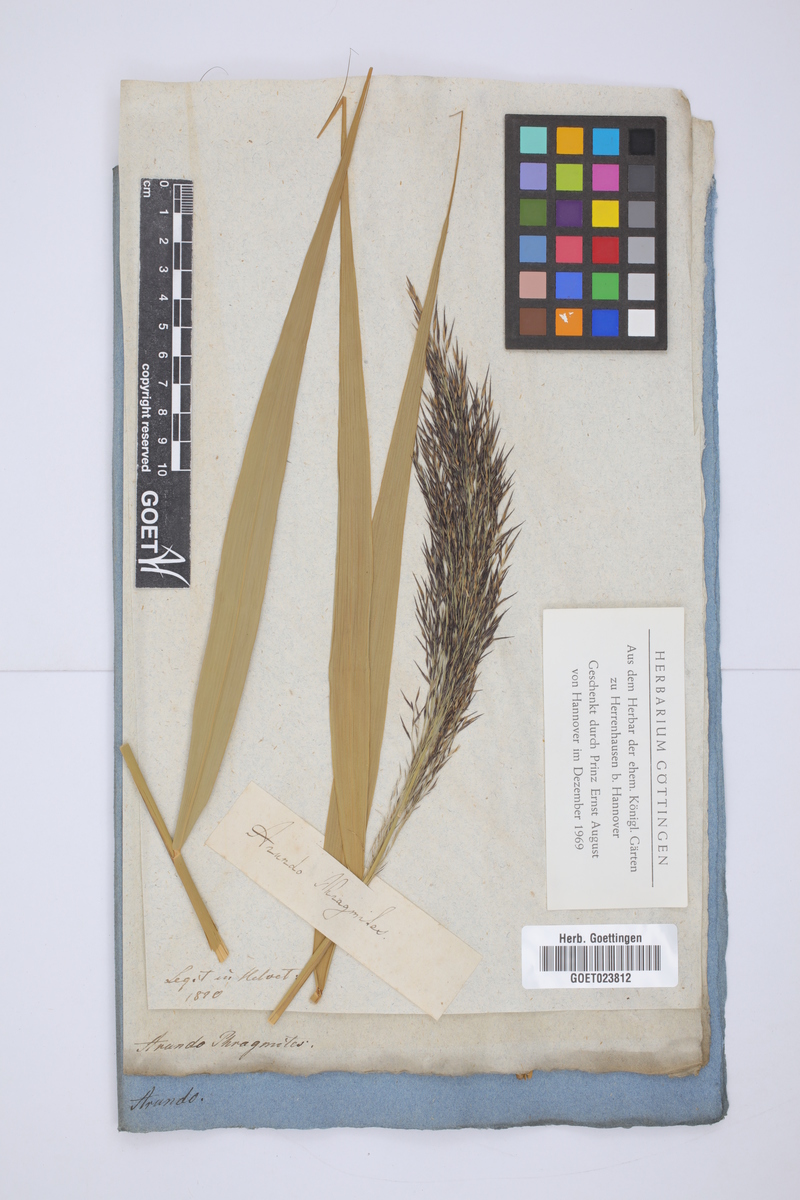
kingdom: Plantae
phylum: Tracheophyta
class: Liliopsida
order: Poales
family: Poaceae
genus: Phragmites
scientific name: Phragmites australis
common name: Common reed
